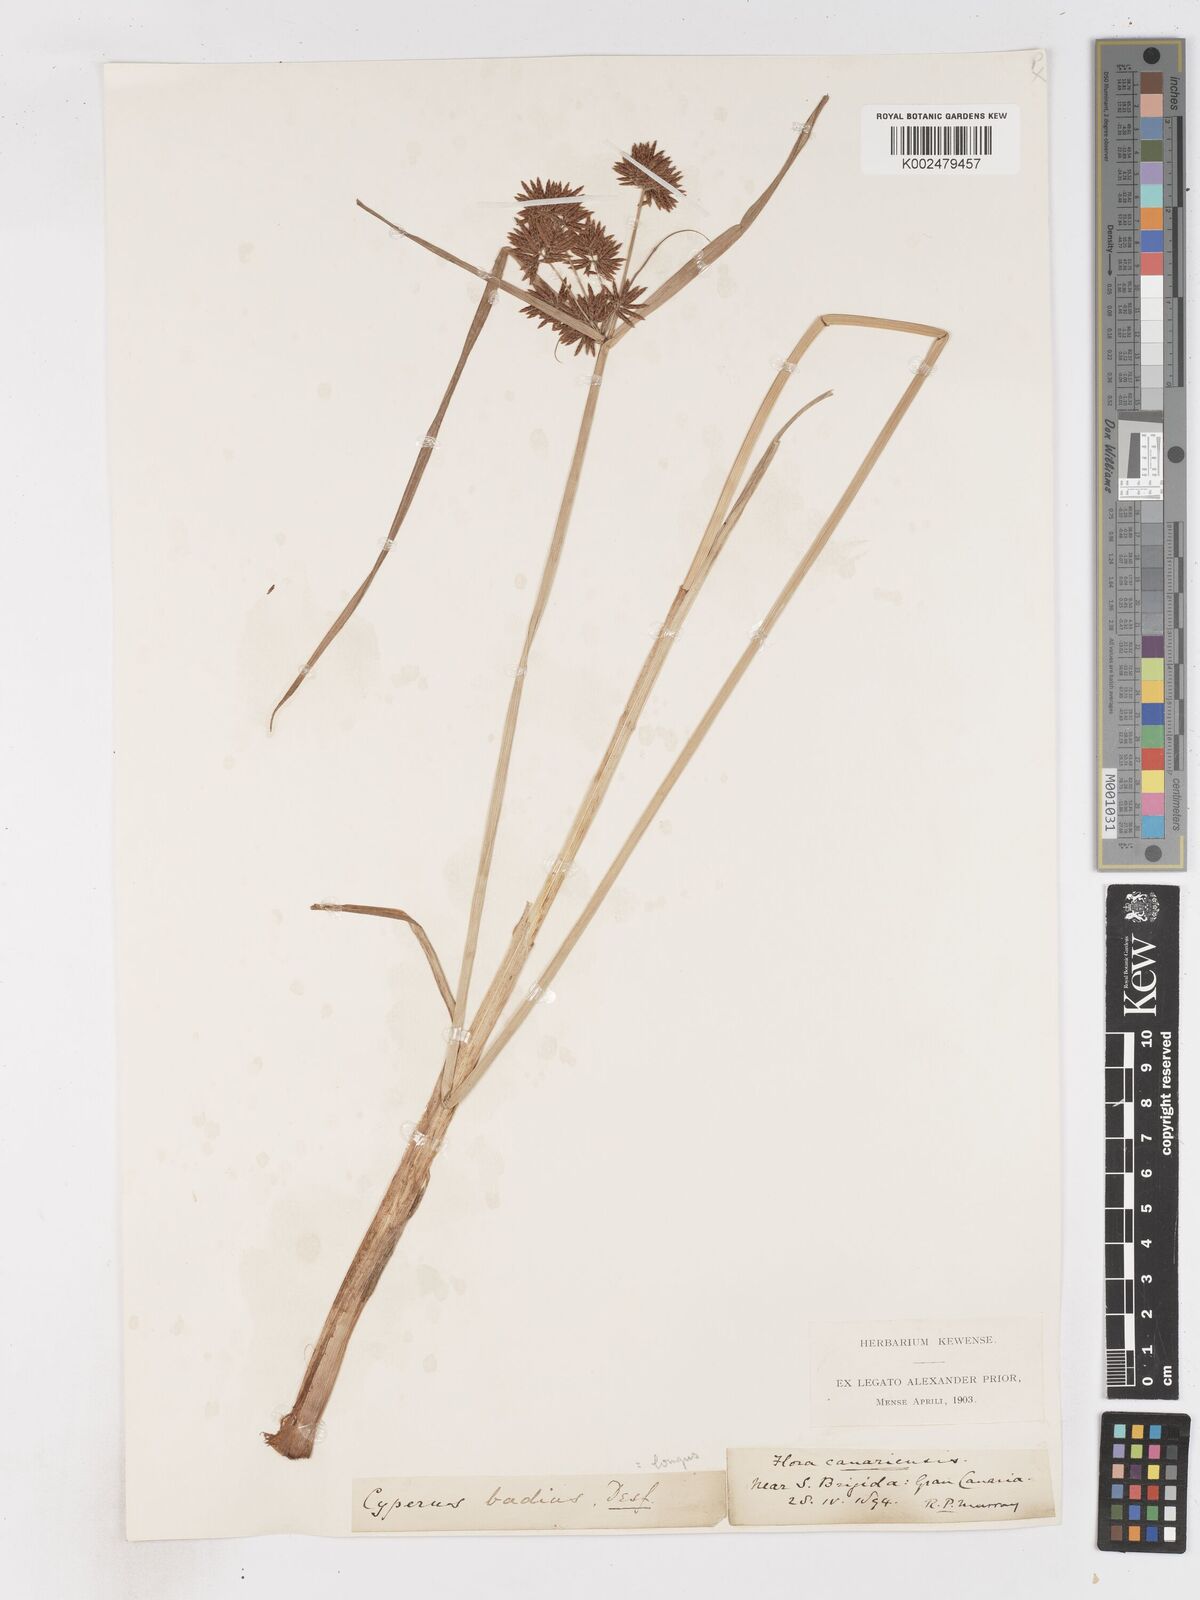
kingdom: Plantae
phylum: Tracheophyta
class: Liliopsida
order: Poales
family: Cyperaceae
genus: Cyperus
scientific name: Cyperus longus
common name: Galingale
